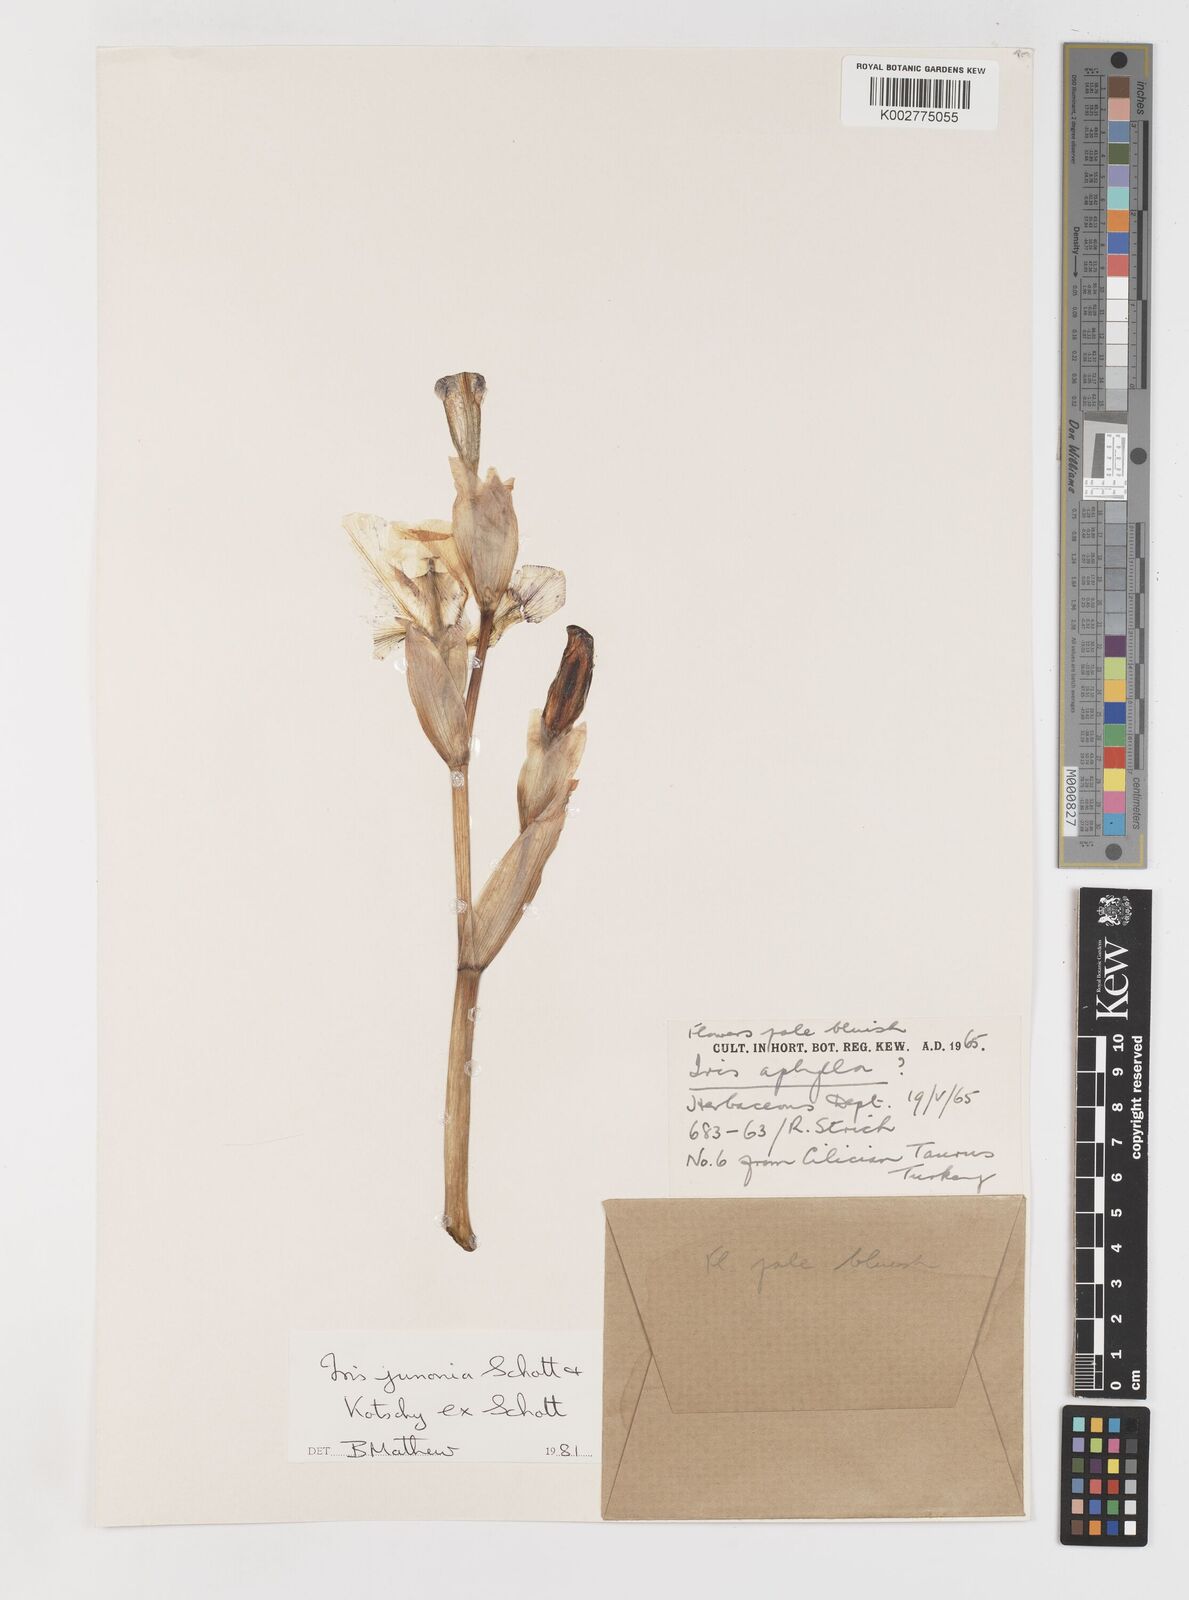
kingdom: Plantae
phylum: Tracheophyta
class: Liliopsida
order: Asparagales
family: Iridaceae
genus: Iris
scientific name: Iris junonia
